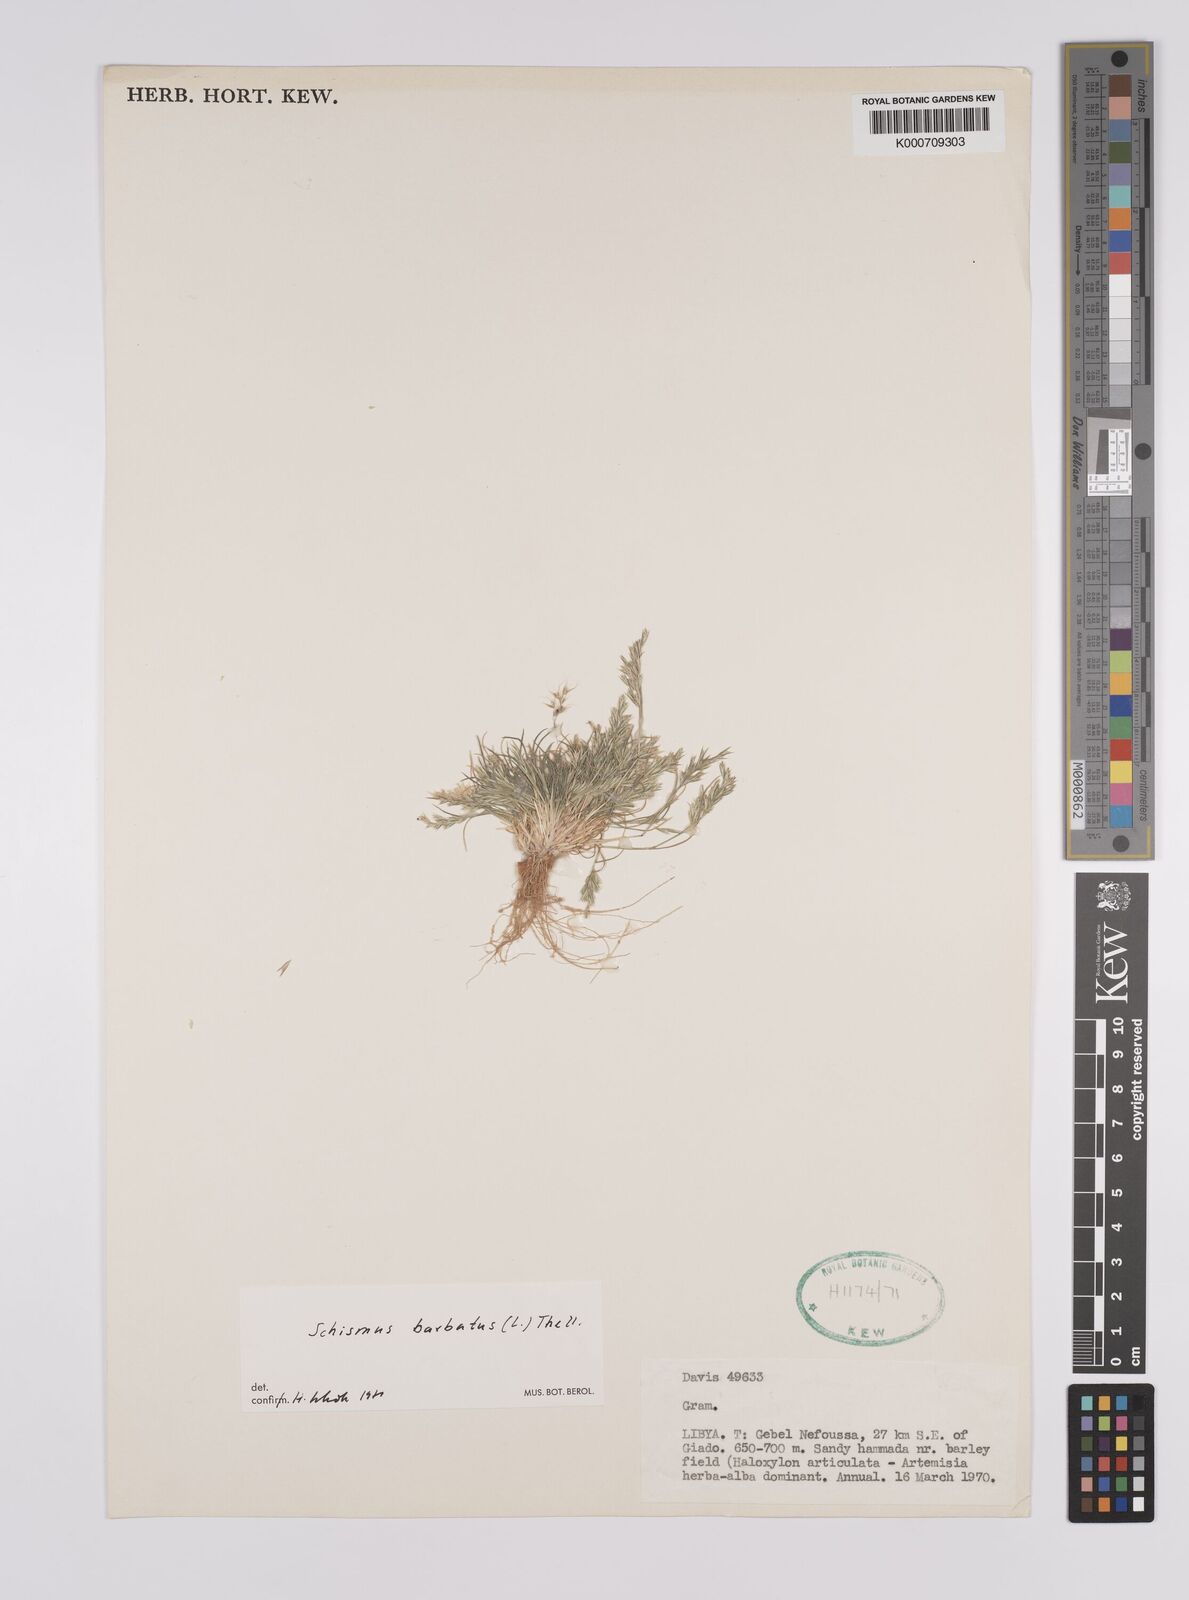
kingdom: Plantae
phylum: Tracheophyta
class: Liliopsida
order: Poales
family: Poaceae
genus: Schismus
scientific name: Schismus barbatus
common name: Kelch-grass
